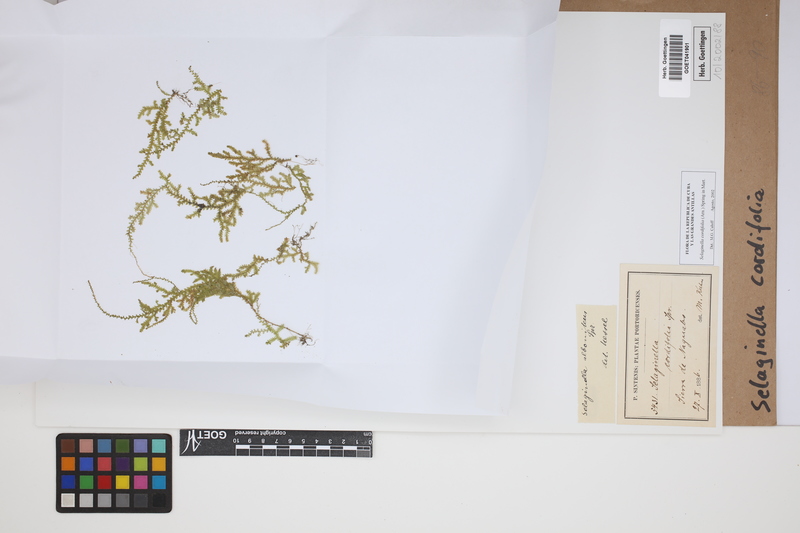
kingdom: Plantae
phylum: Tracheophyta
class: Lycopodiopsida
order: Selaginellales
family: Selaginellaceae
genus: Selaginella
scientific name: Selaginella cordifolia
